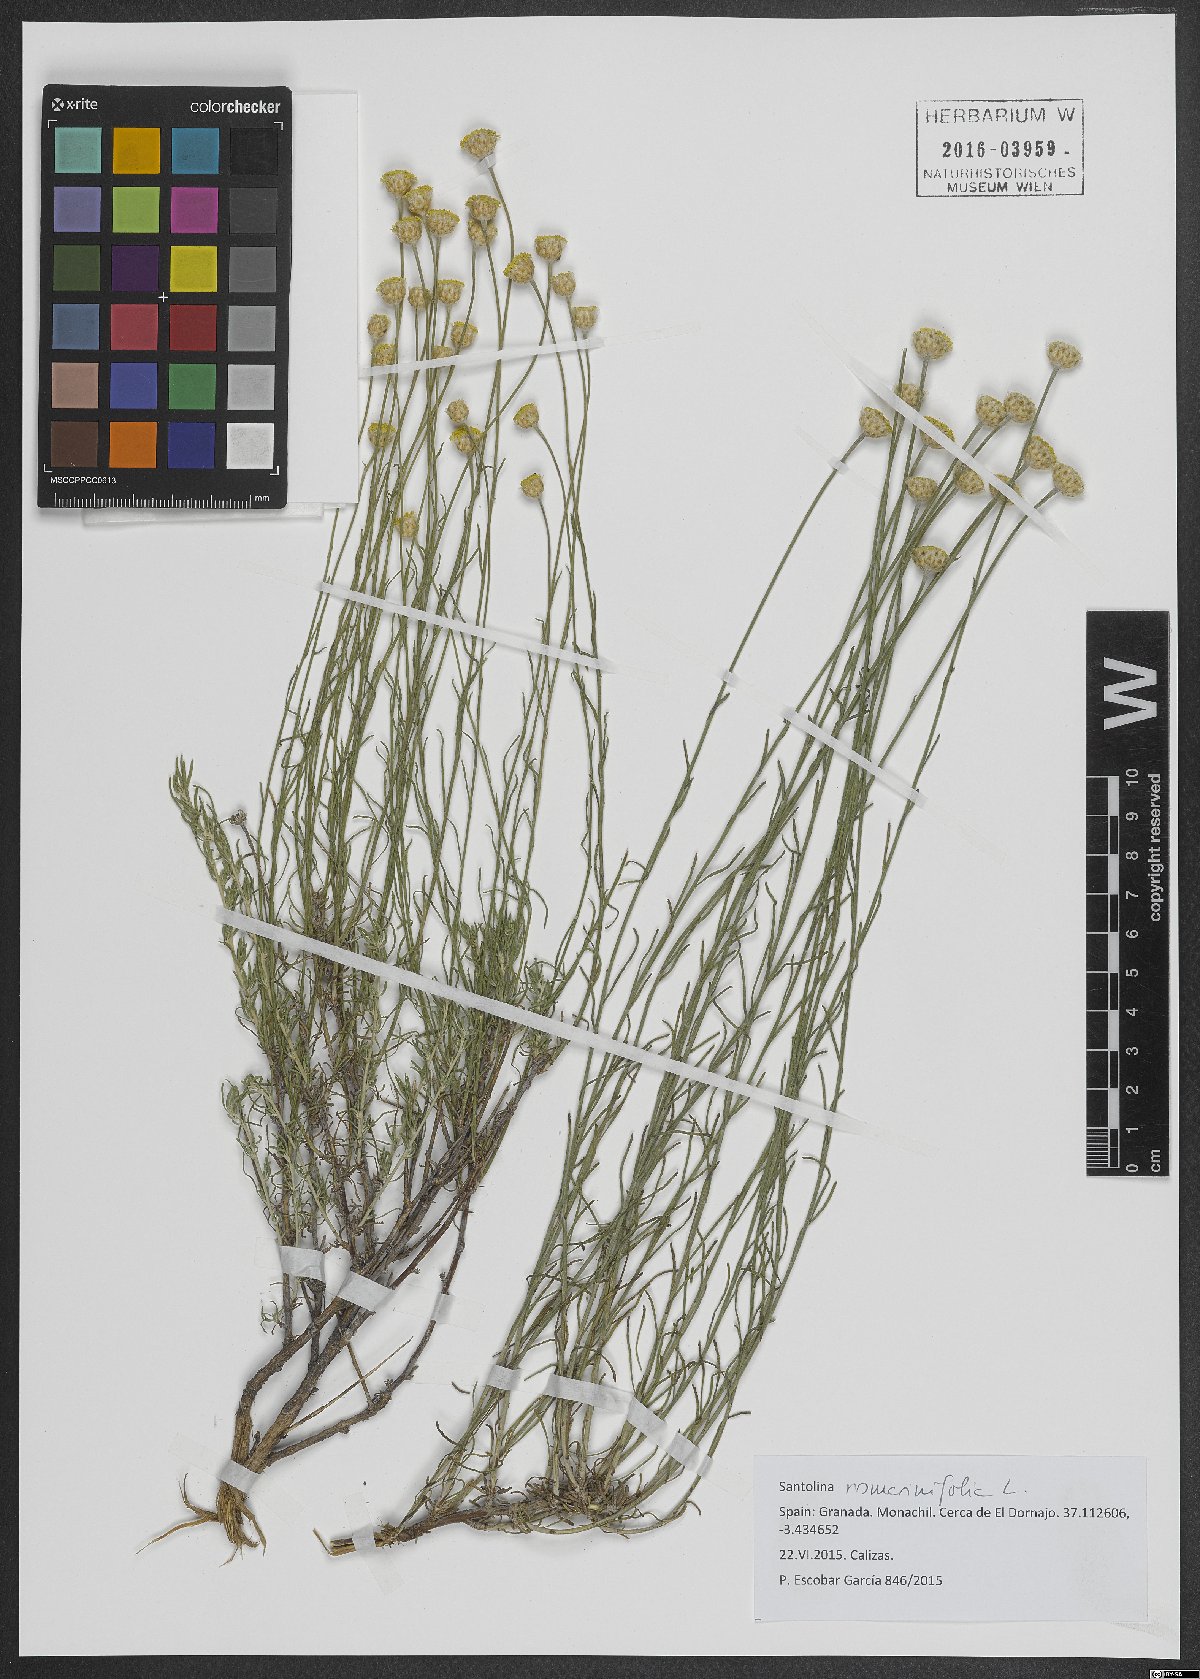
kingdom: Plantae
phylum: Tracheophyta
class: Magnoliopsida
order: Asterales
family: Asteraceae
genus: Santolina
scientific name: Santolina rosmarinifolia
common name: Holy-flax
